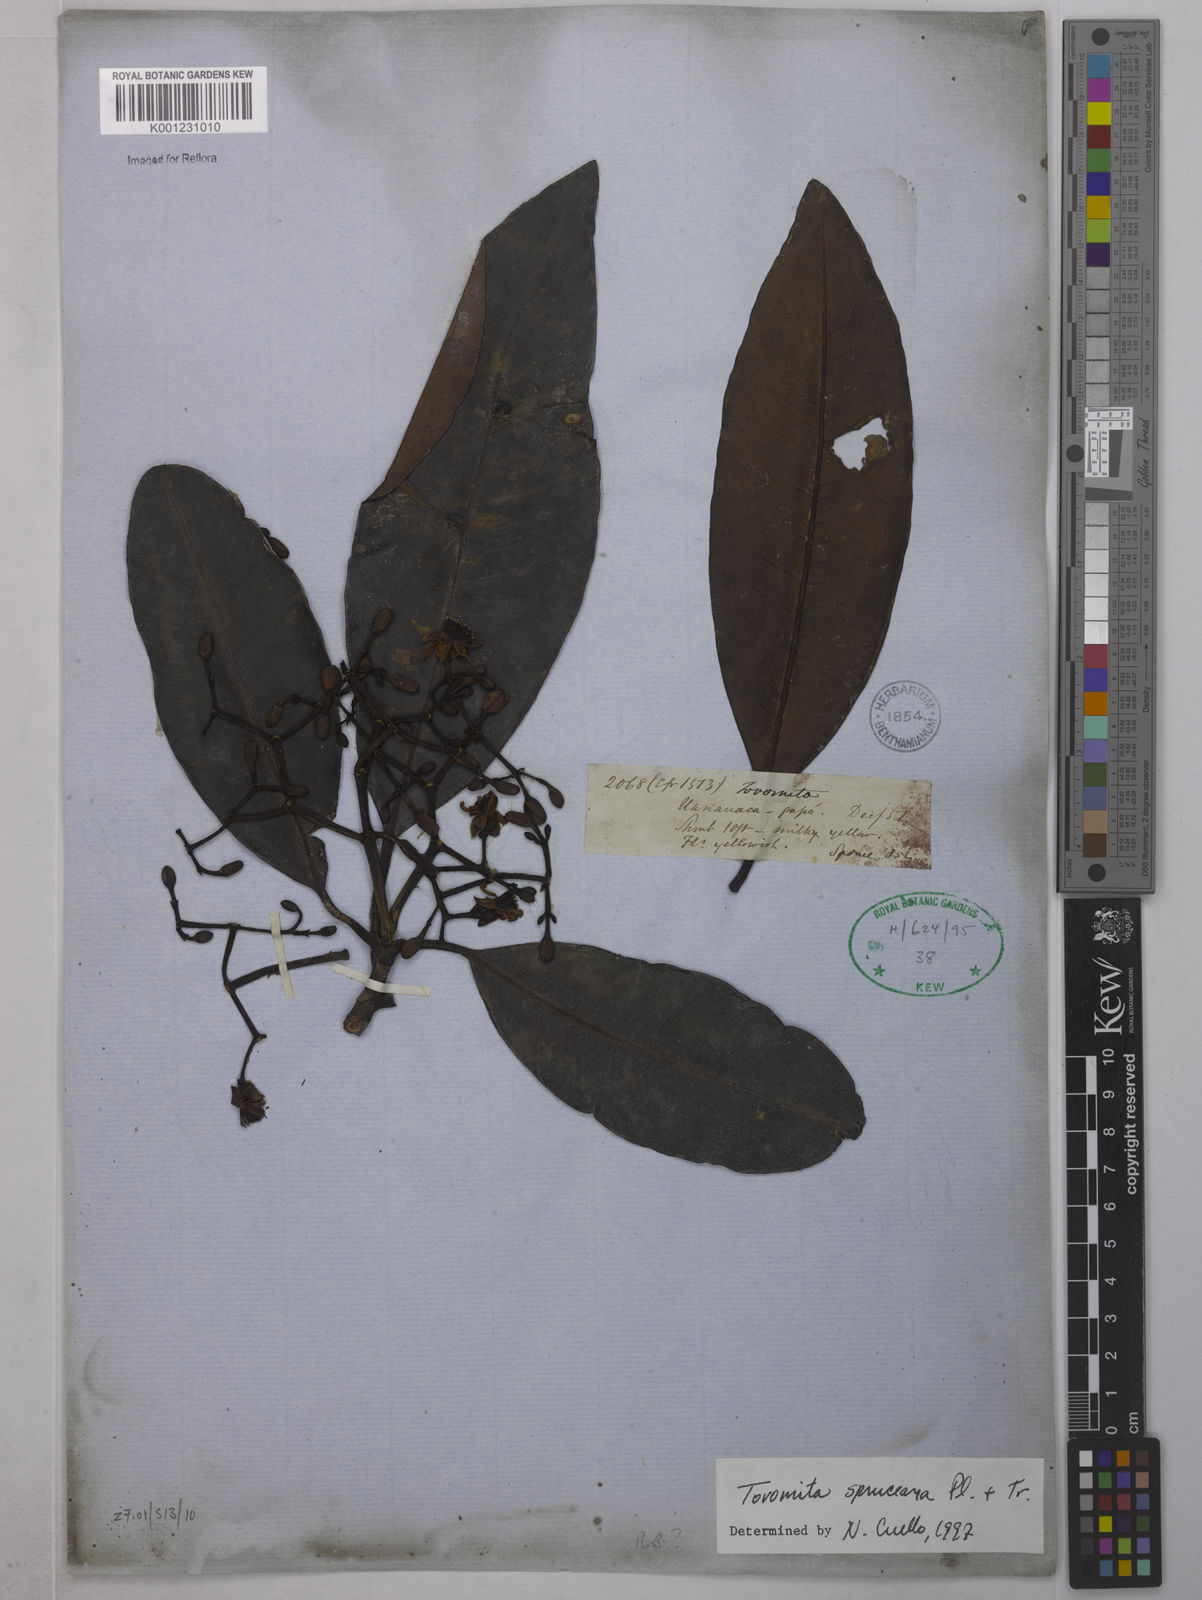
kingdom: Plantae
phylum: Tracheophyta
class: Magnoliopsida
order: Malpighiales
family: Clusiaceae
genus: Tovomita
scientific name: Tovomita spruceana
